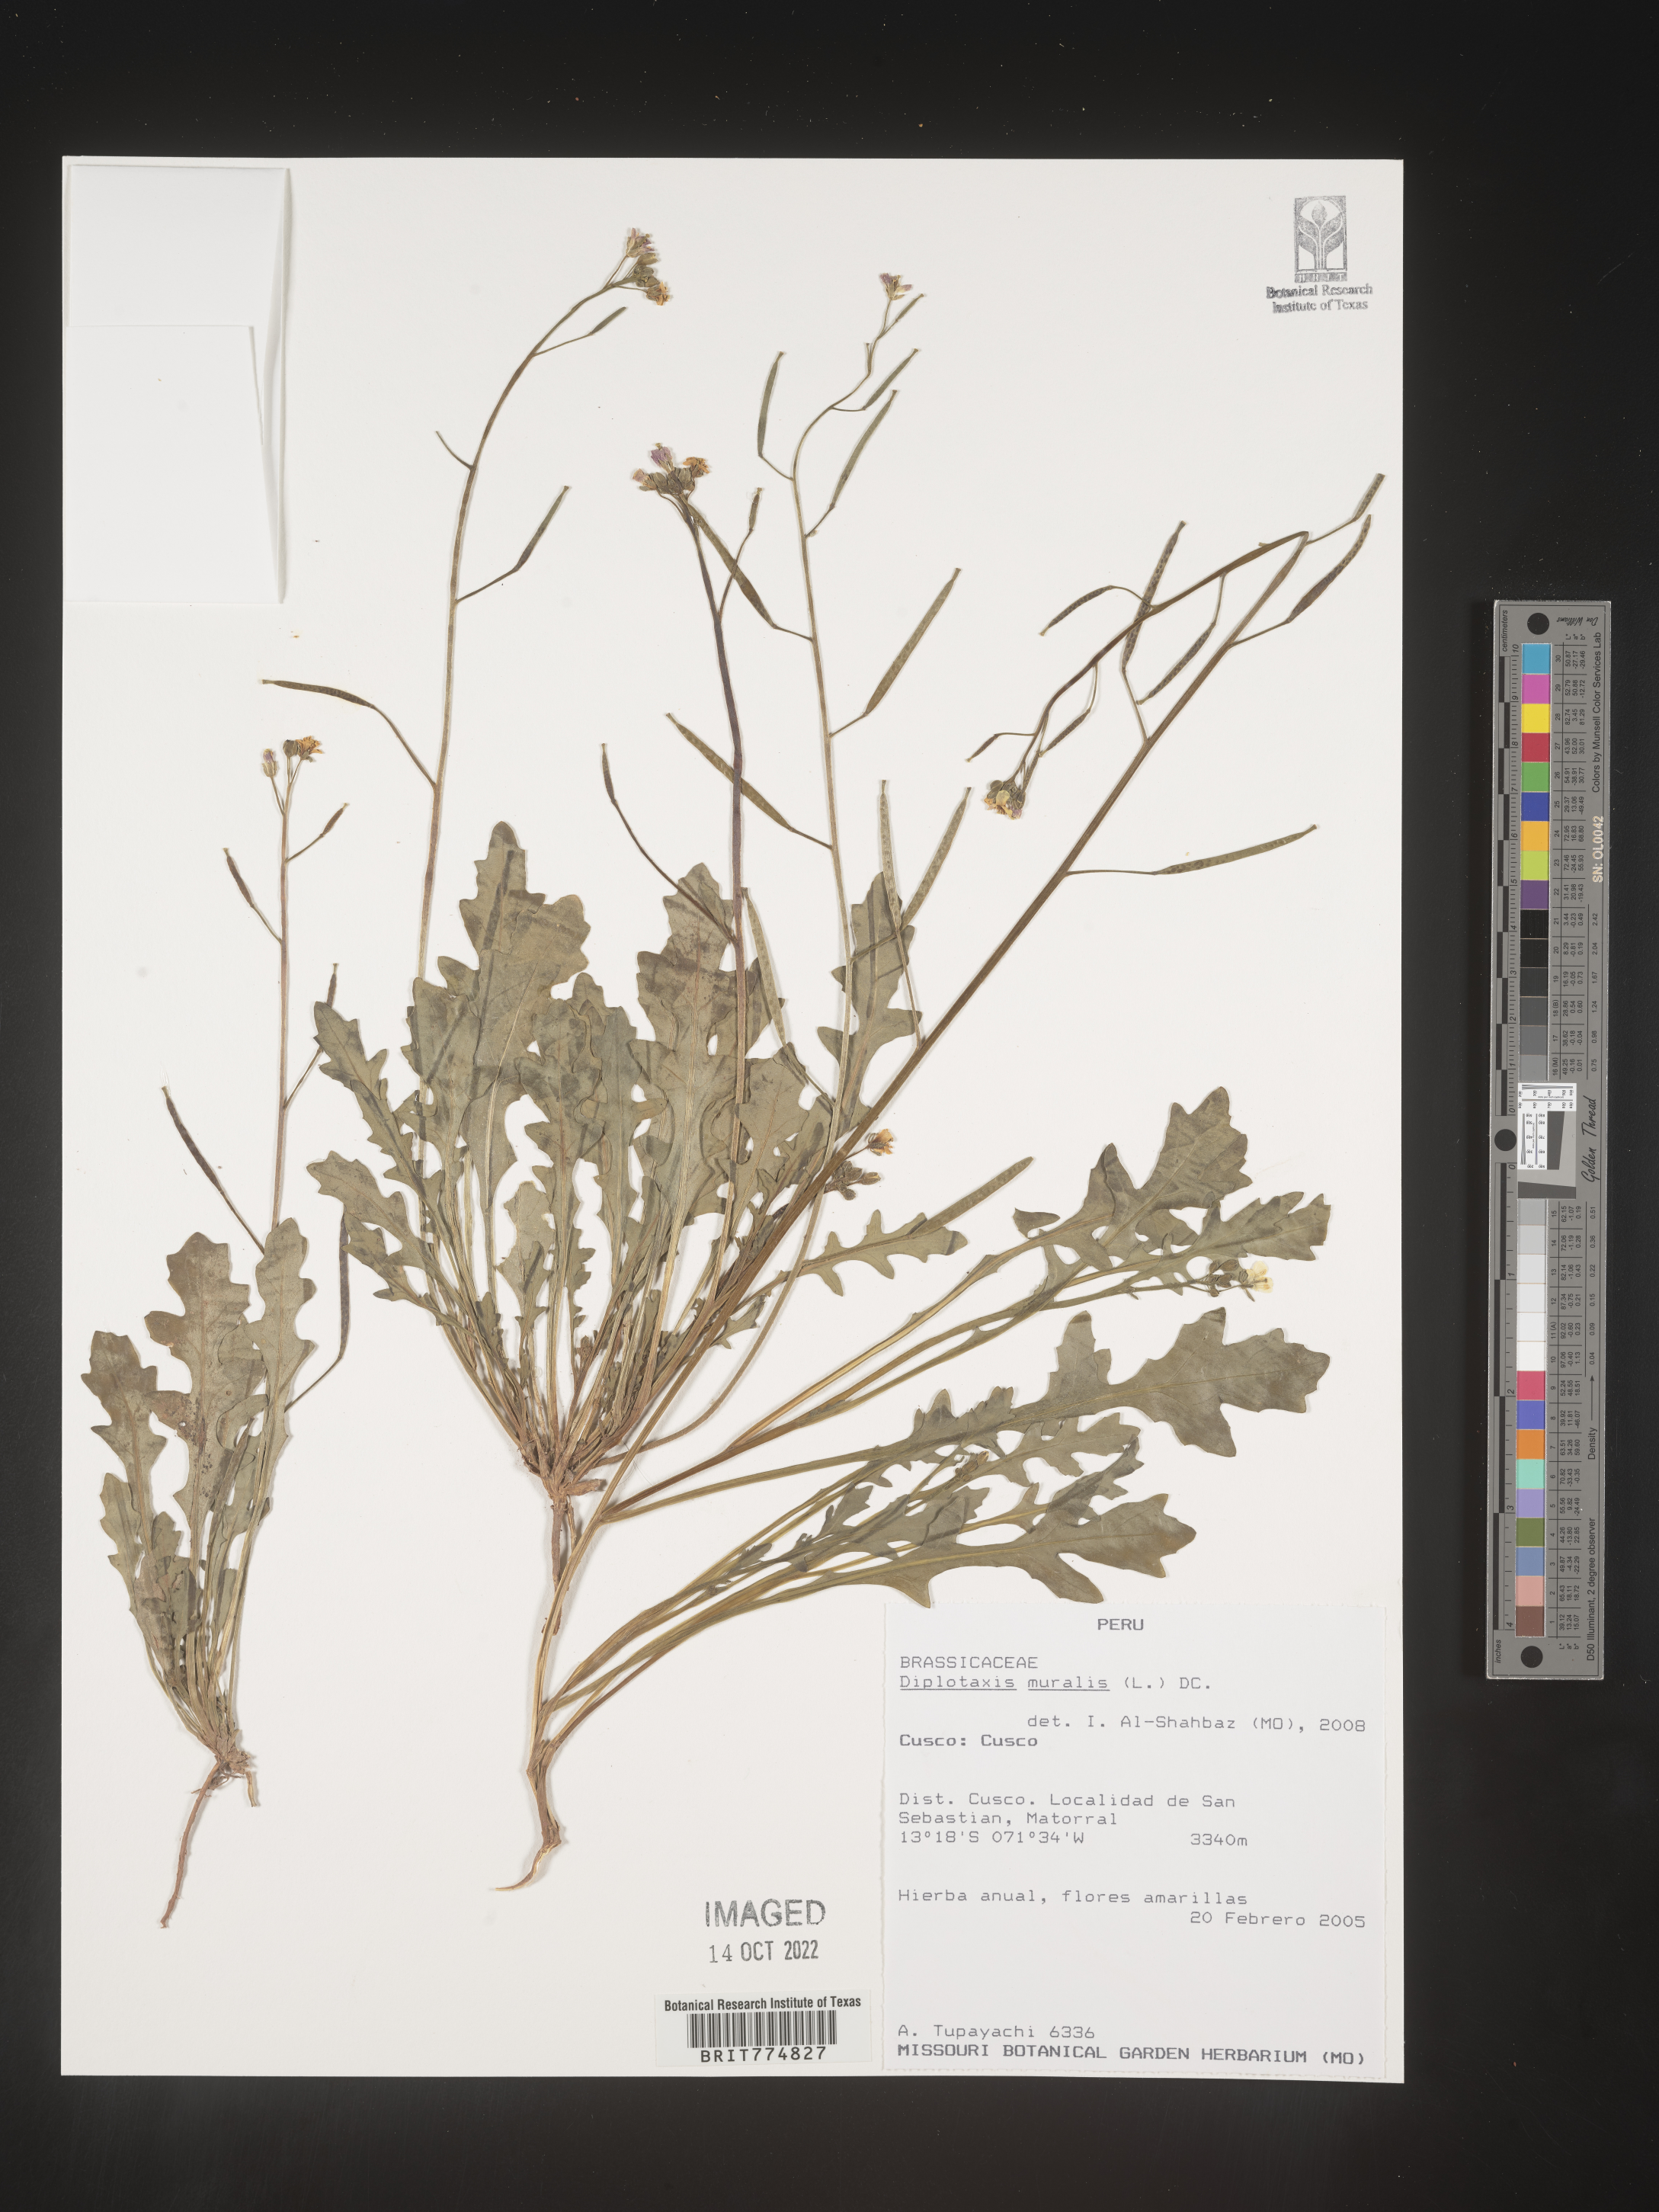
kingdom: Plantae
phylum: Tracheophyta
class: Magnoliopsida
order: Brassicales
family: Brassicaceae
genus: Diplotaxis
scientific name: Diplotaxis
